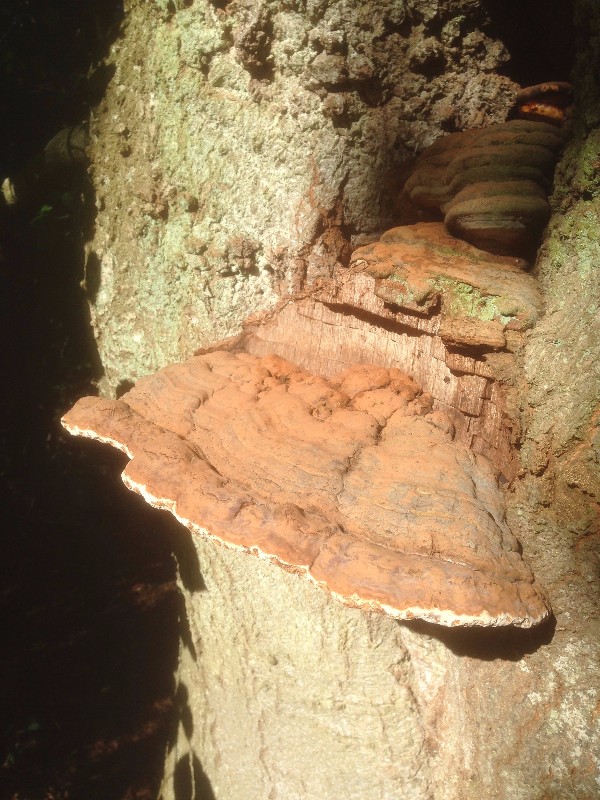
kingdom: Fungi
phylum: Basidiomycota
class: Agaricomycetes
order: Polyporales
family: Polyporaceae
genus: Ganoderma
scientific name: Ganoderma pfeifferi
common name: kobberrød lakporesvamp
